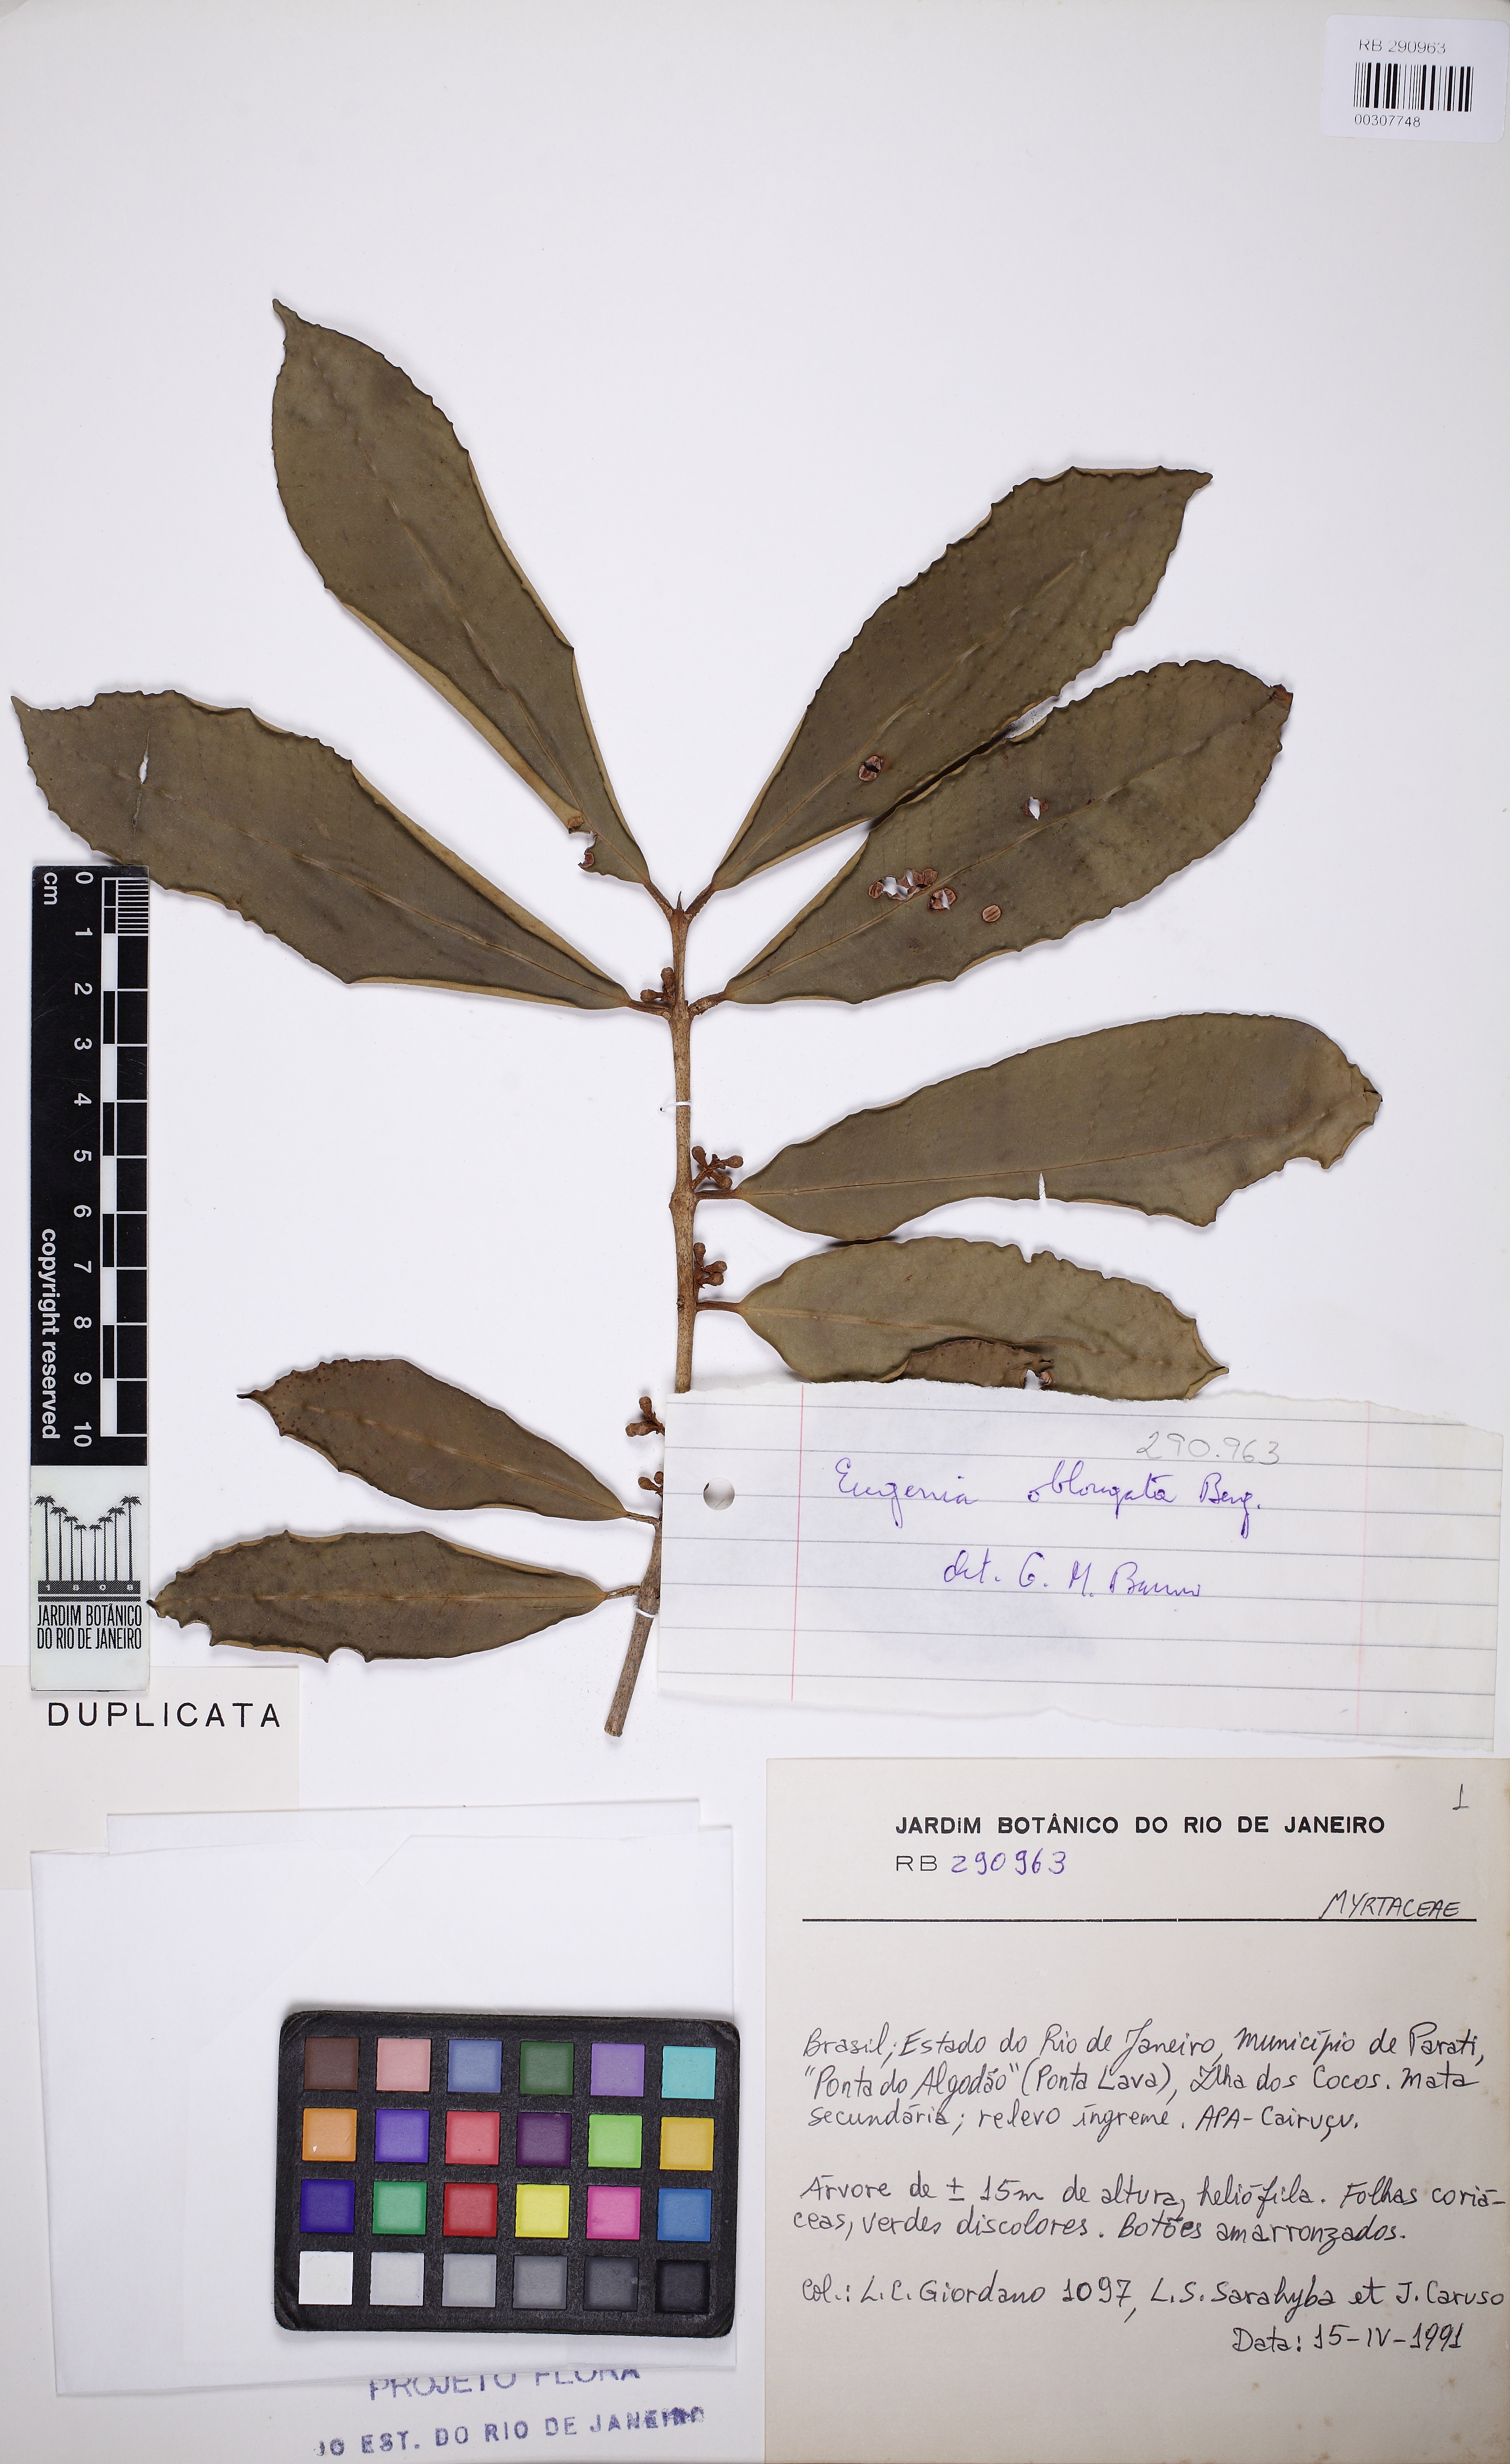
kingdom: Plantae
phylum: Tracheophyta
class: Magnoliopsida
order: Myrtales
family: Myrtaceae
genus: Eugenia
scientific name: Eugenia oblongata
